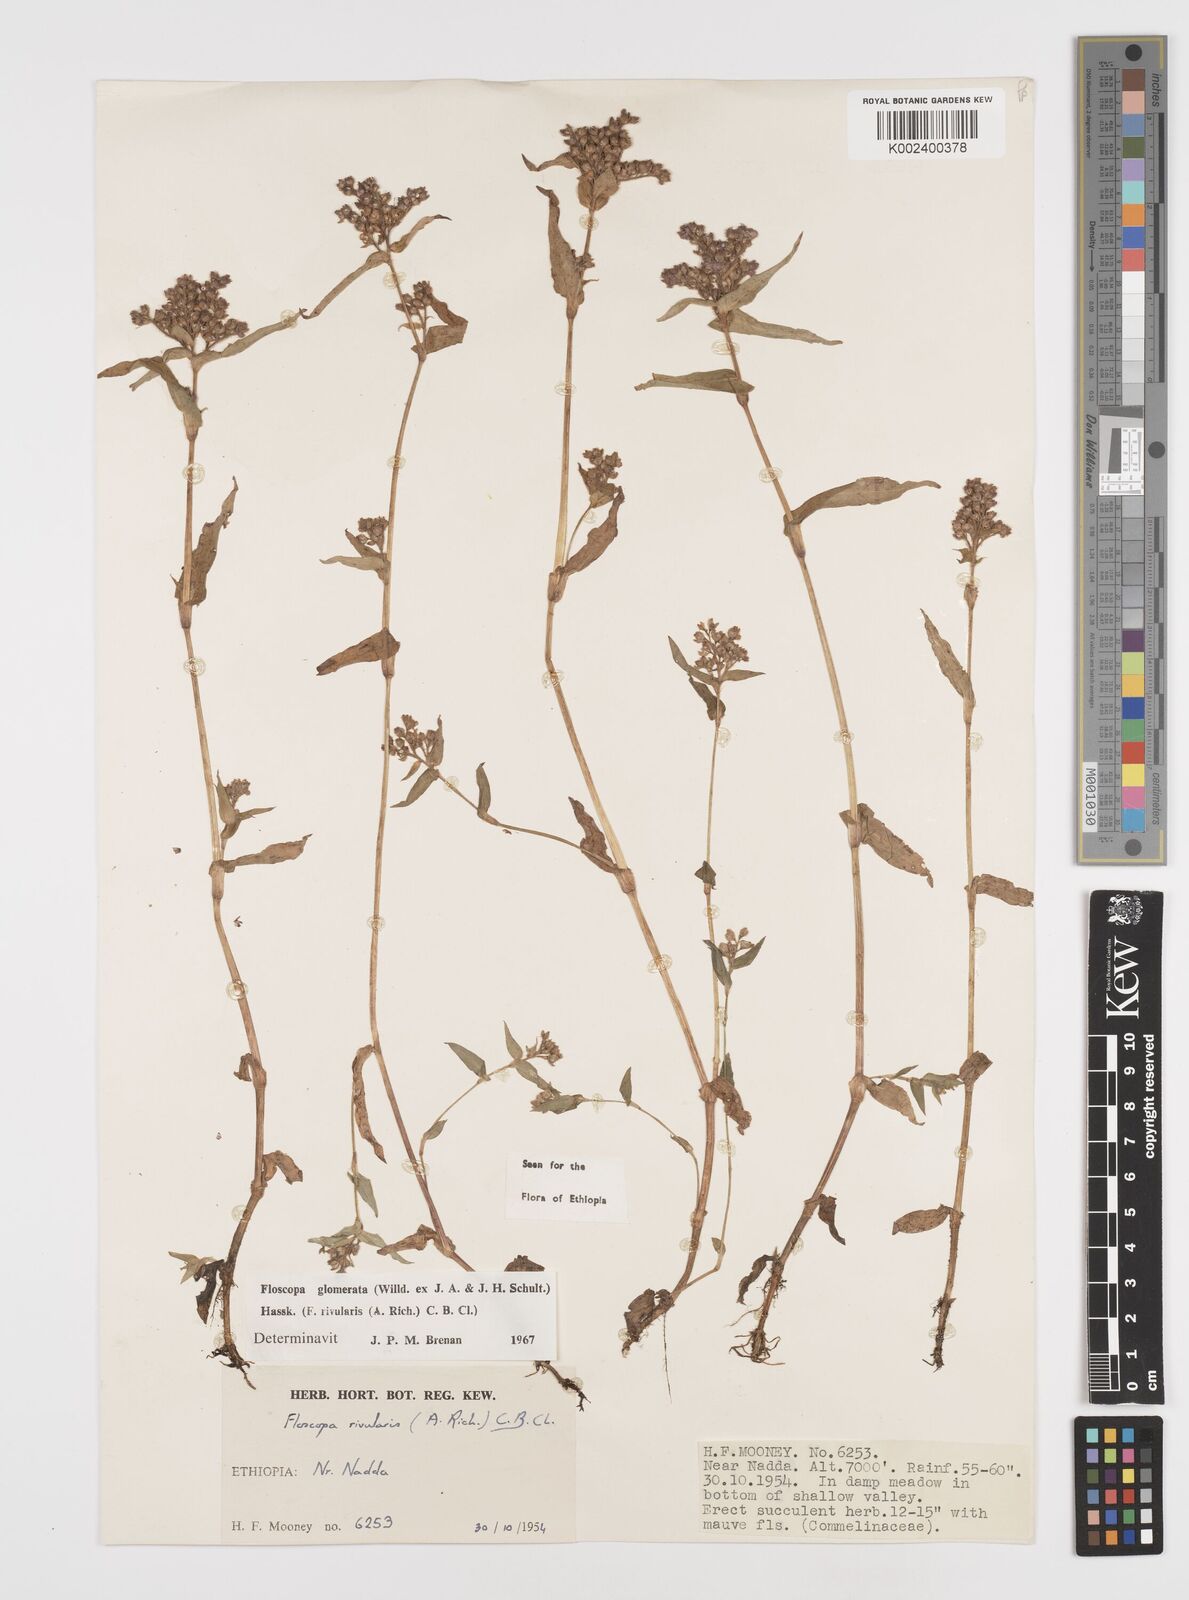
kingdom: Plantae
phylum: Tracheophyta
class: Liliopsida
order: Commelinales
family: Commelinaceae
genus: Floscopa
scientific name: Floscopa glomerata
